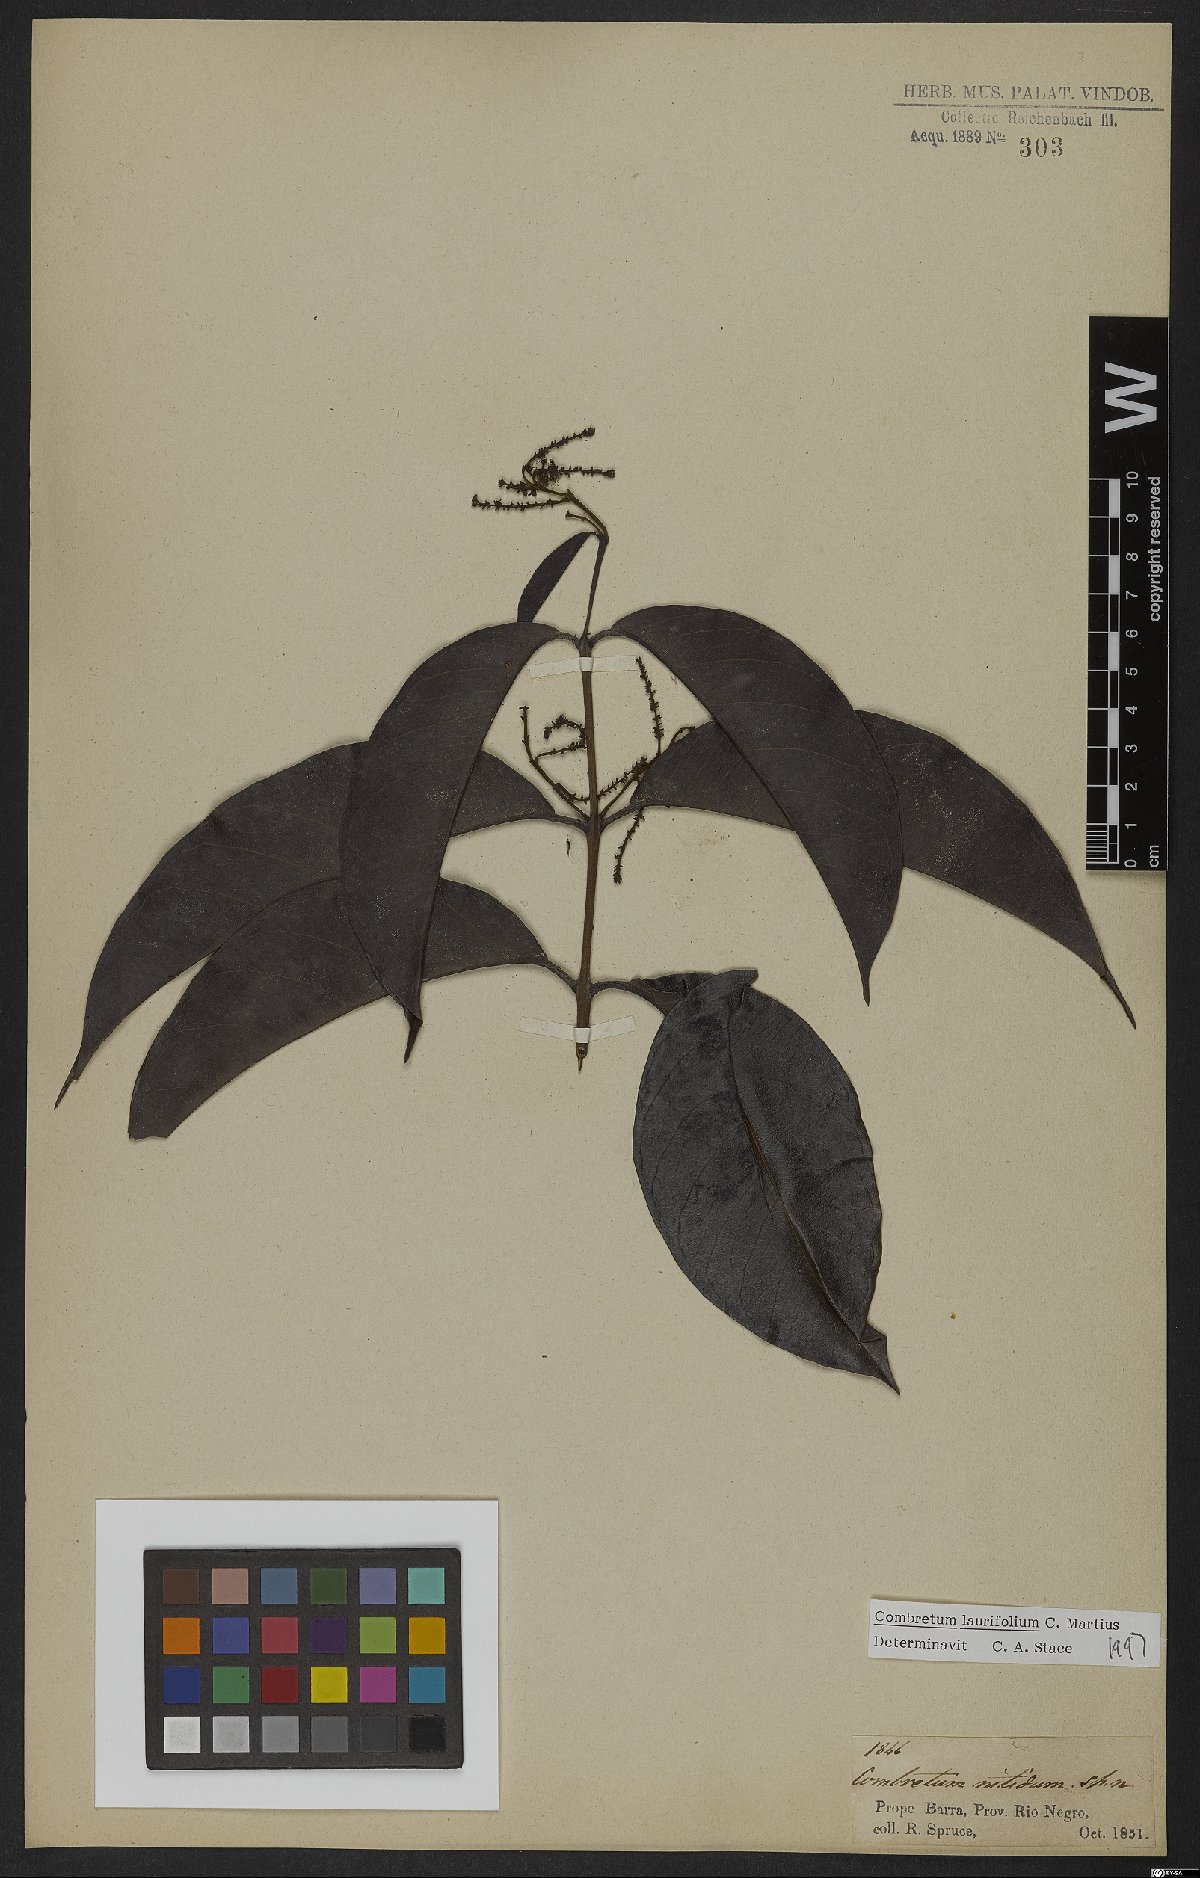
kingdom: Plantae
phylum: Tracheophyta
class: Magnoliopsida
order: Myrtales
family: Combretaceae
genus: Combretum
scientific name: Combretum coriifolium
